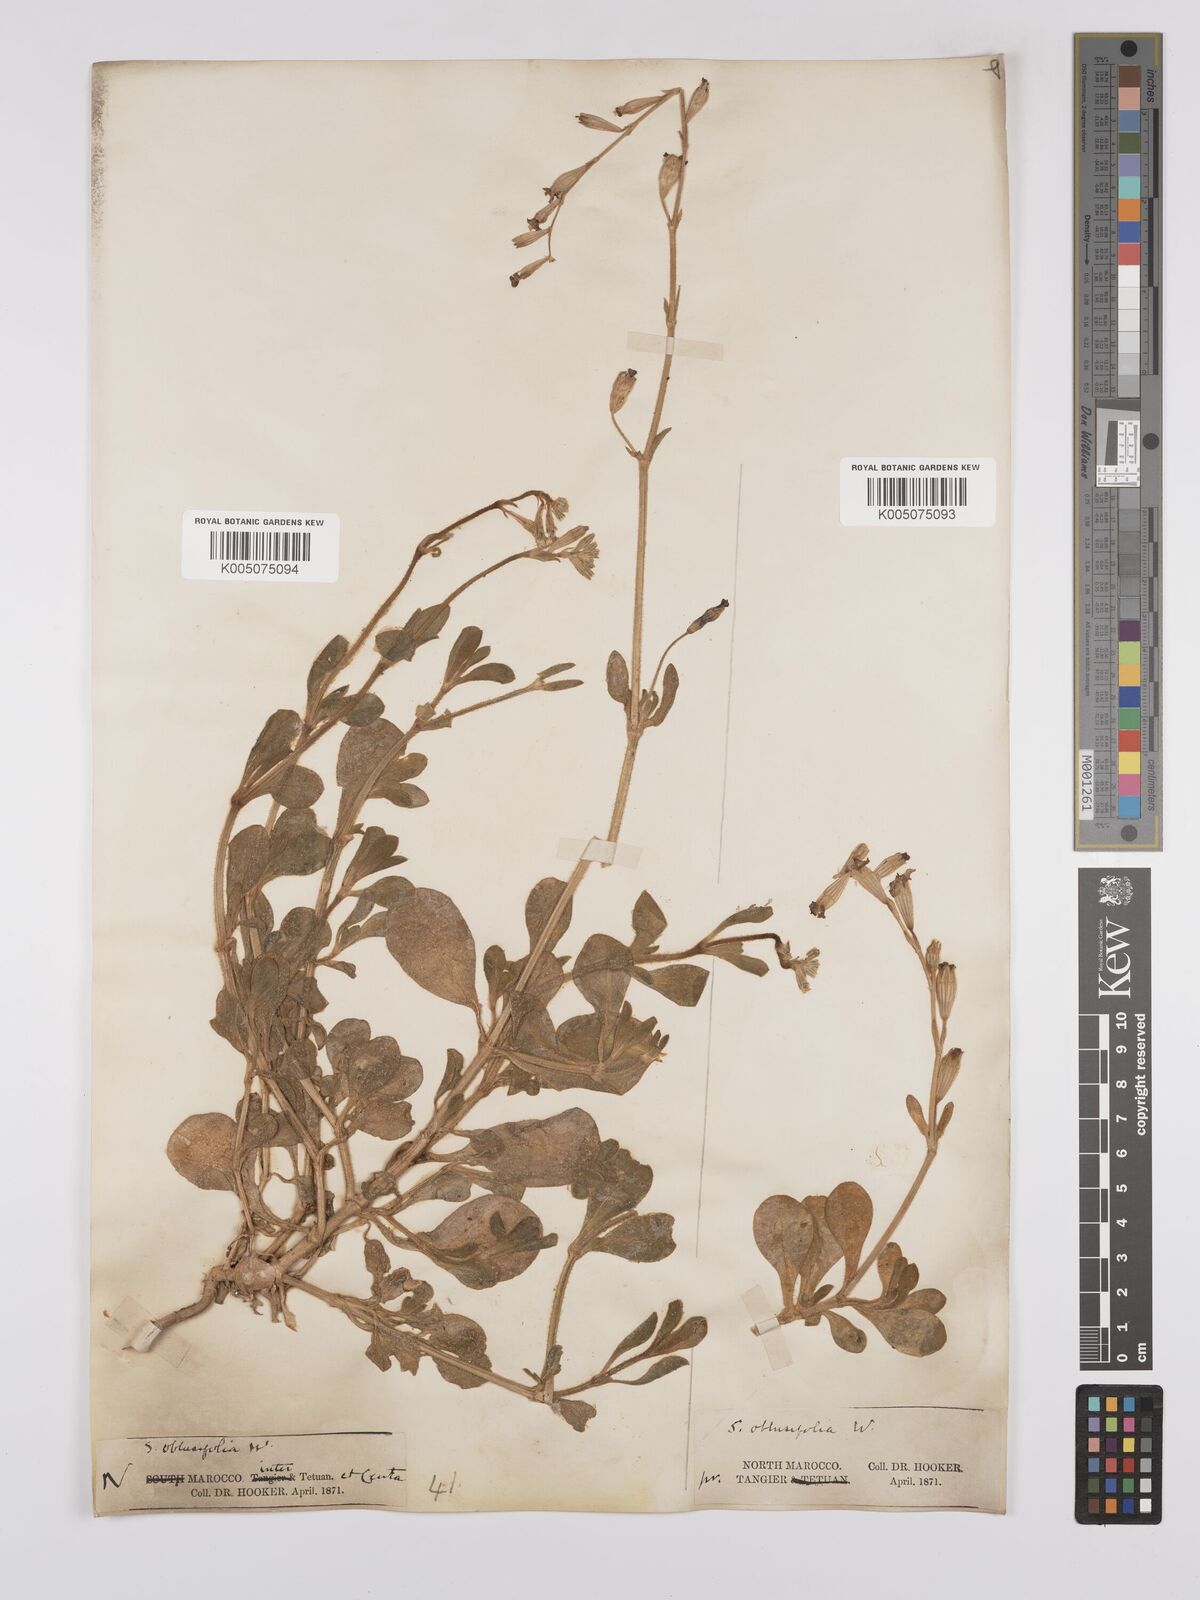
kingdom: Plantae
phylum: Tracheophyta
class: Magnoliopsida
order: Caryophyllales
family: Caryophyllaceae
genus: Silene
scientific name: Silene obtusifolia
